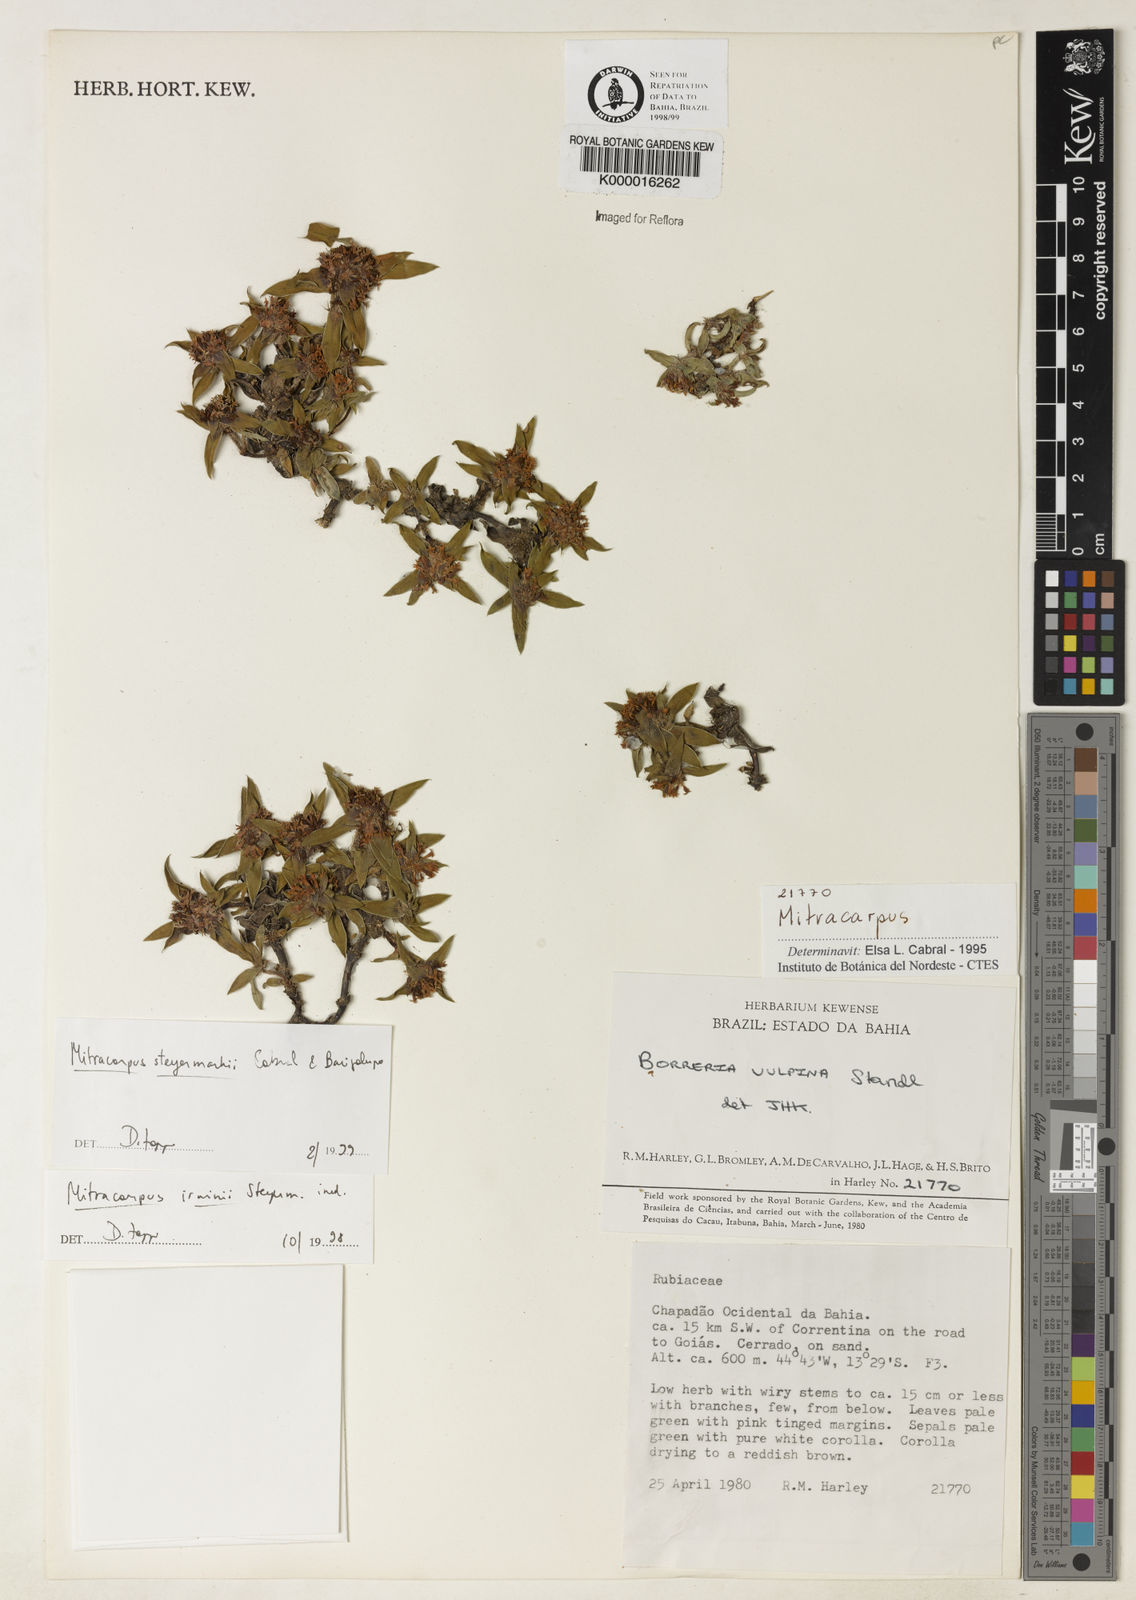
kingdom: Plantae
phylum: Tracheophyta
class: Magnoliopsida
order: Gentianales
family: Rubiaceae
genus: Mitracarpus
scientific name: Mitracarpus steyermarkii
